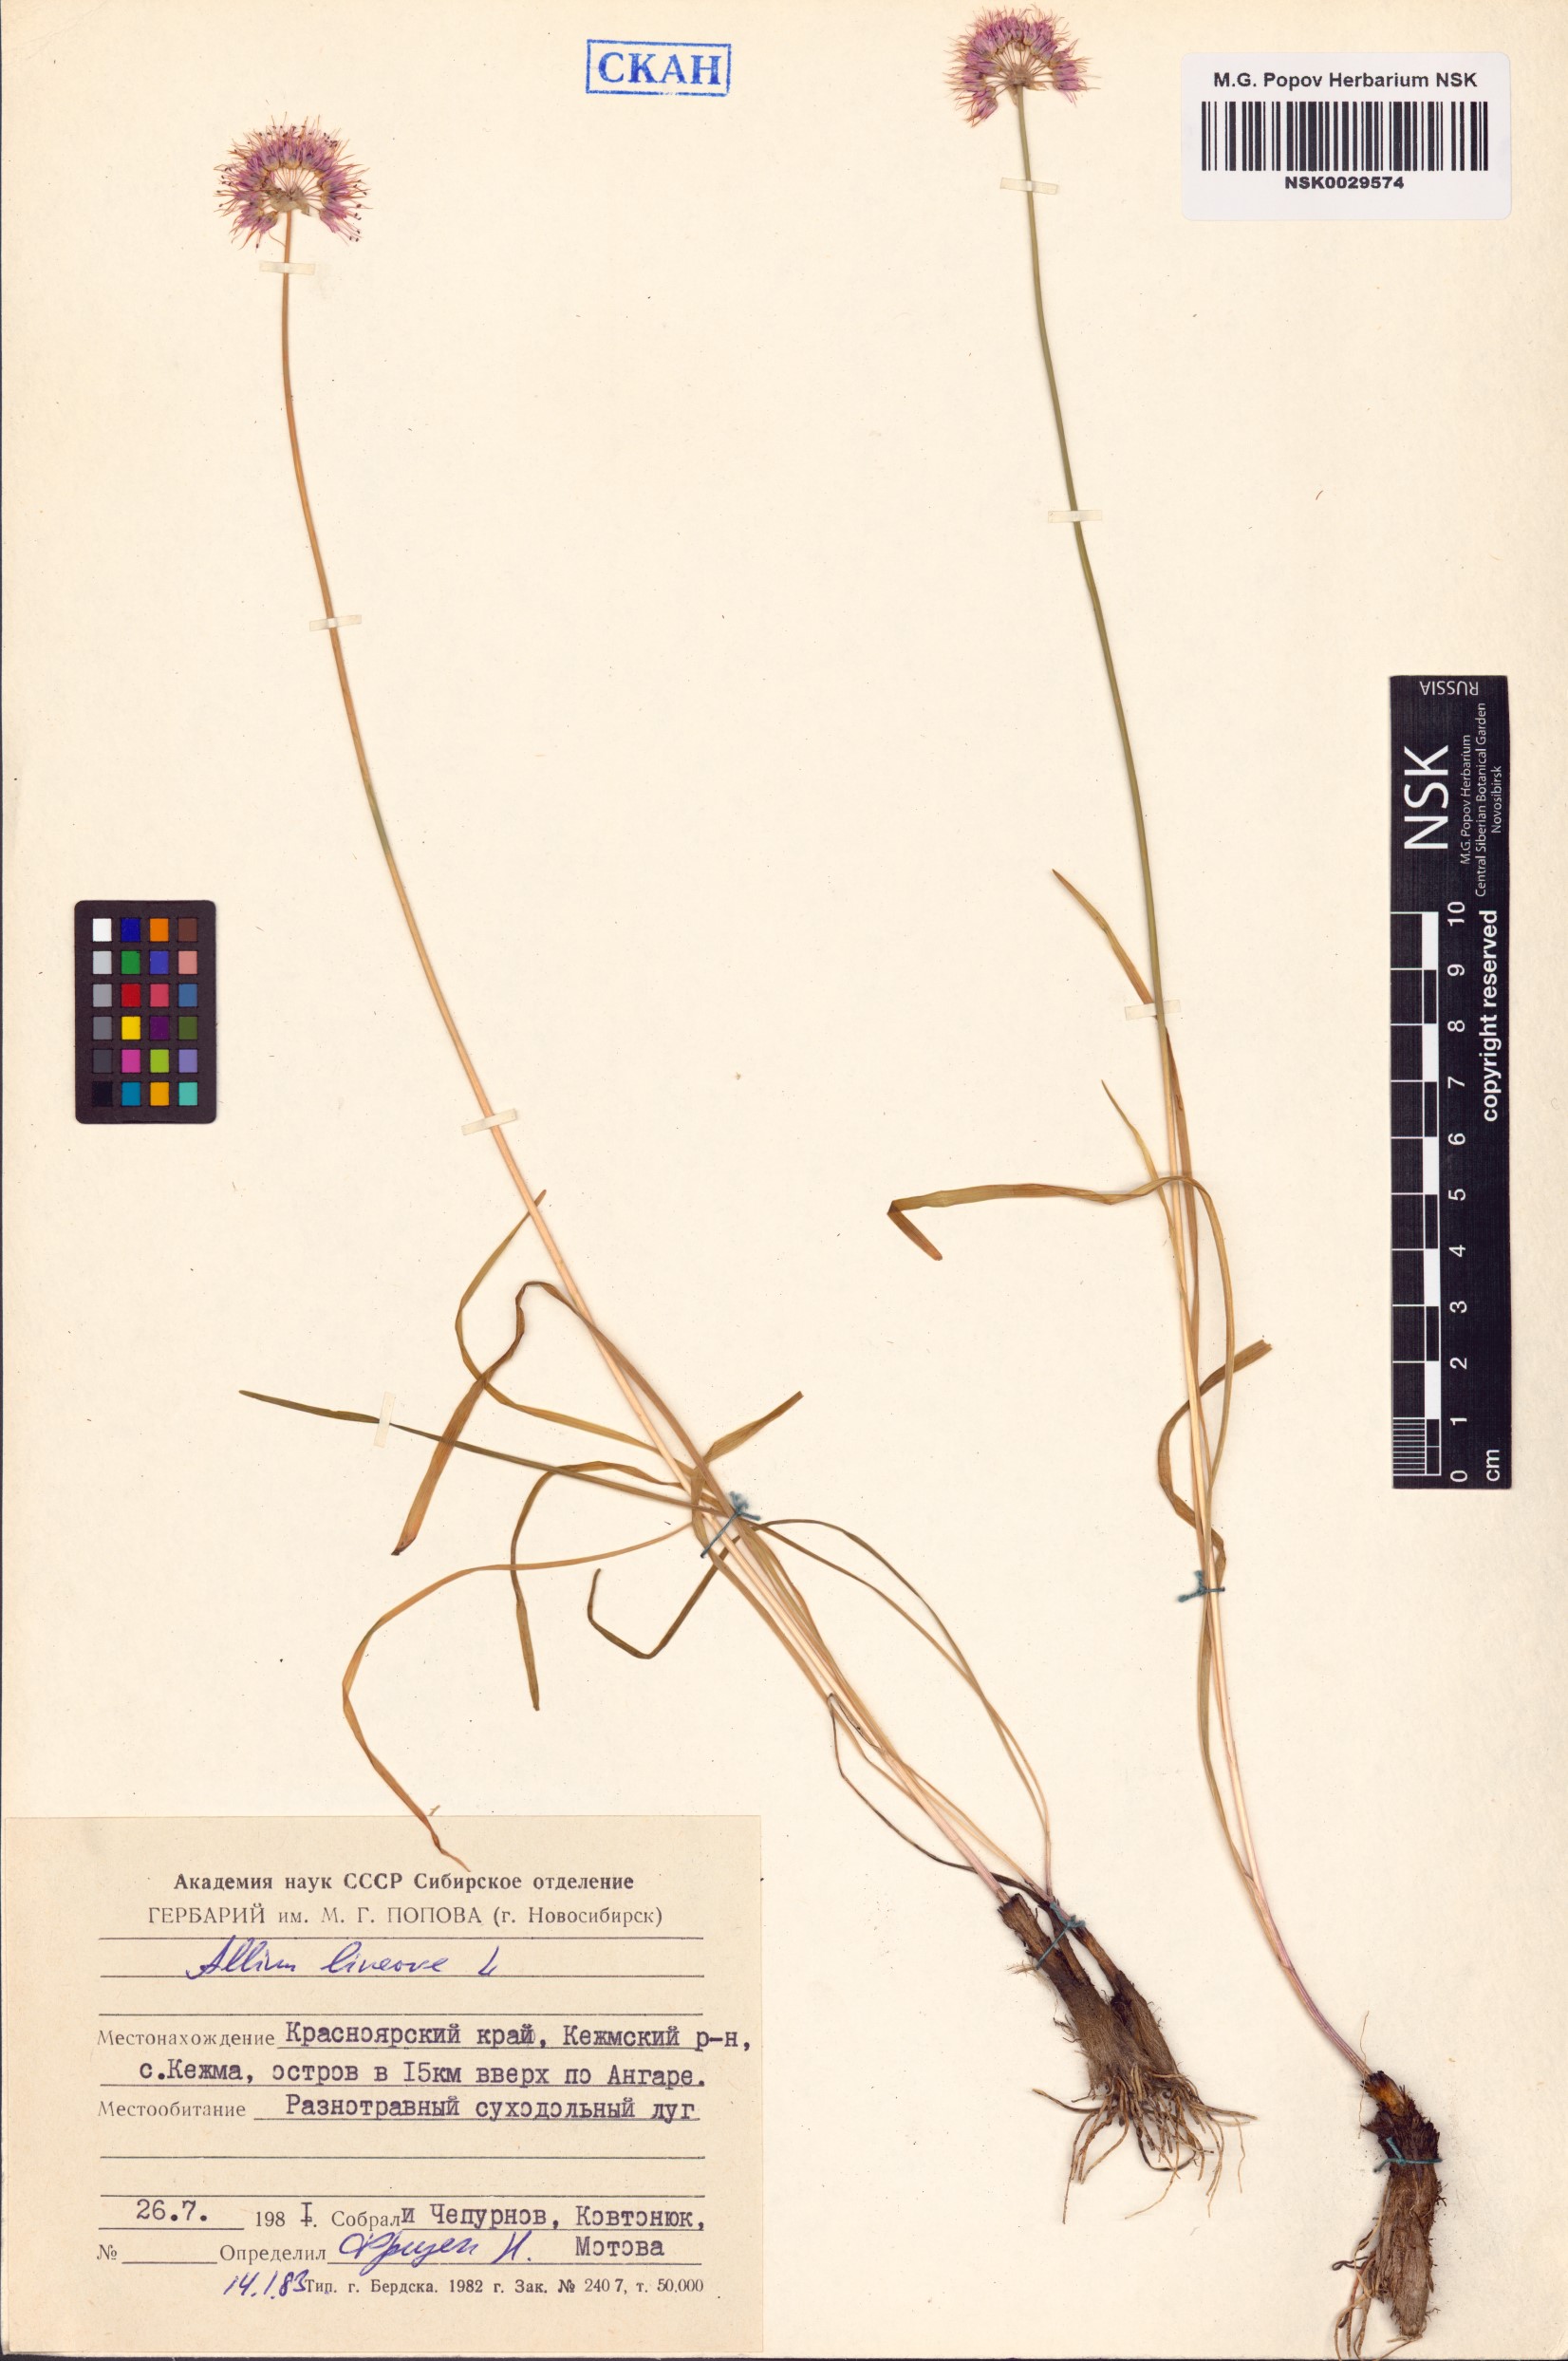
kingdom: Plantae
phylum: Tracheophyta
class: Liliopsida
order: Asparagales
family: Amaryllidaceae
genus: Allium
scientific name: Allium lineare
